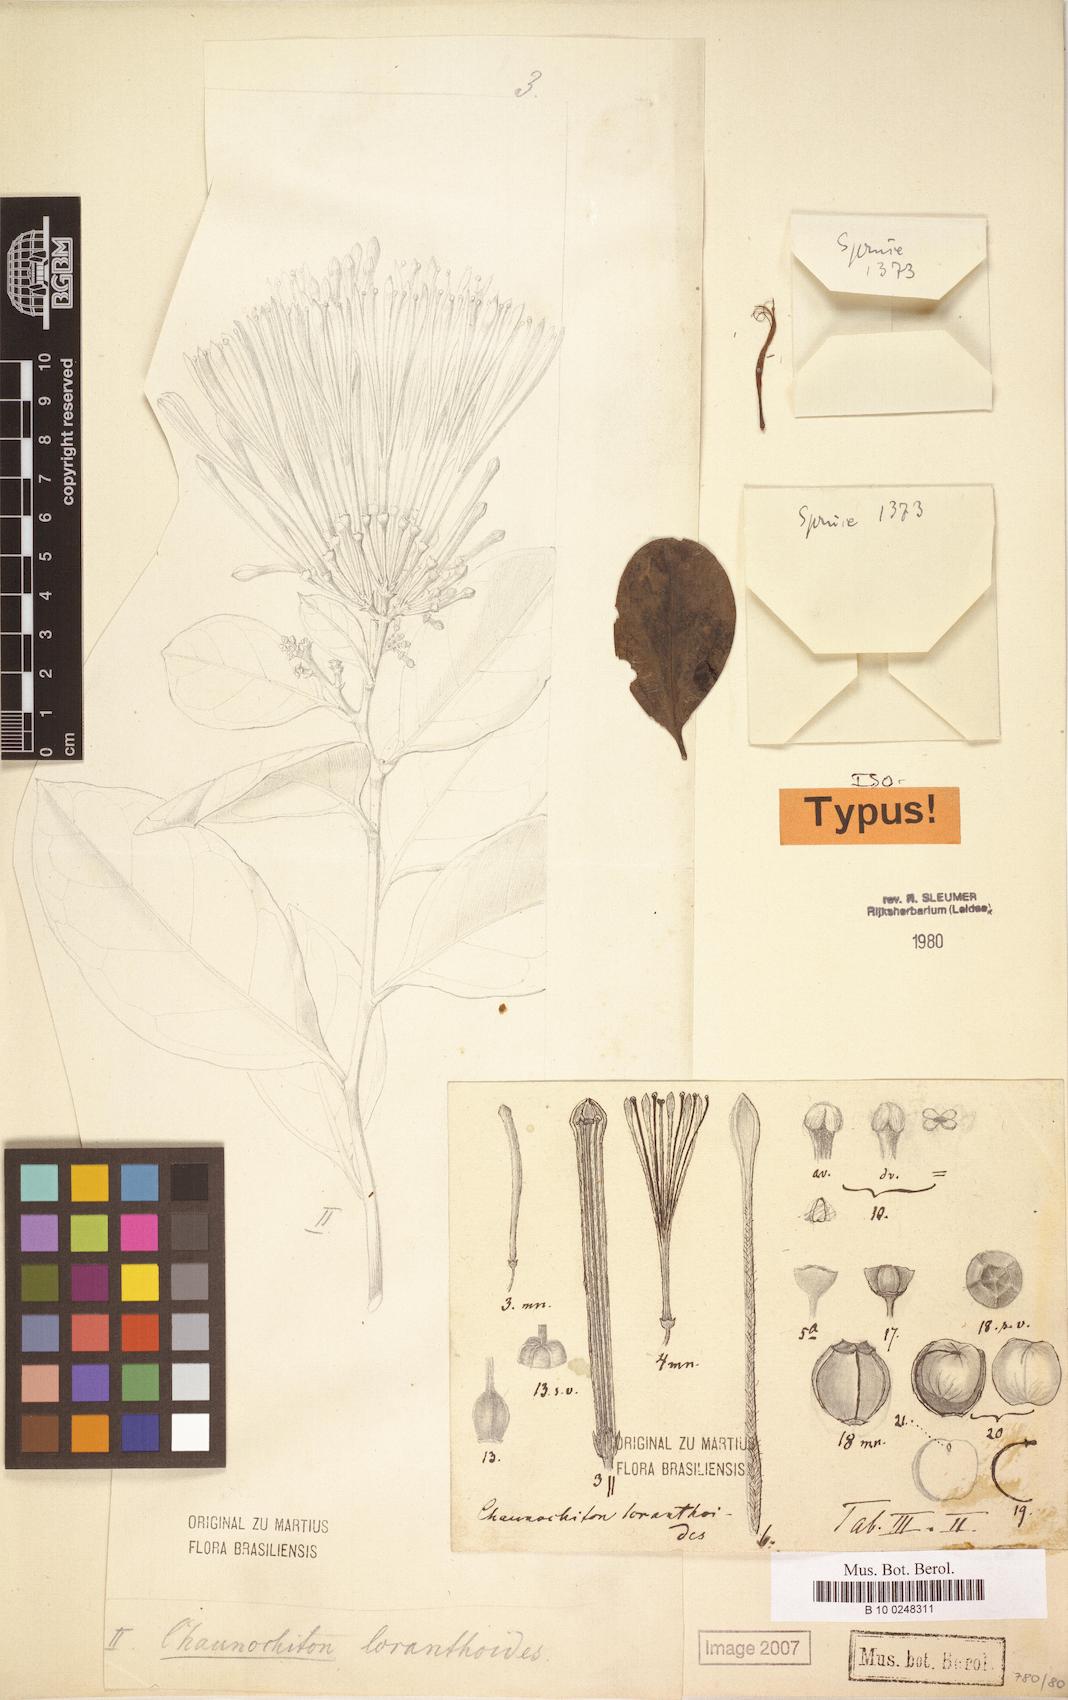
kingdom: Plantae
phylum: Tracheophyta
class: Magnoliopsida
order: Santalales
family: Aptandraceae
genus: Chaunochiton
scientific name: Chaunochiton loranthoides
